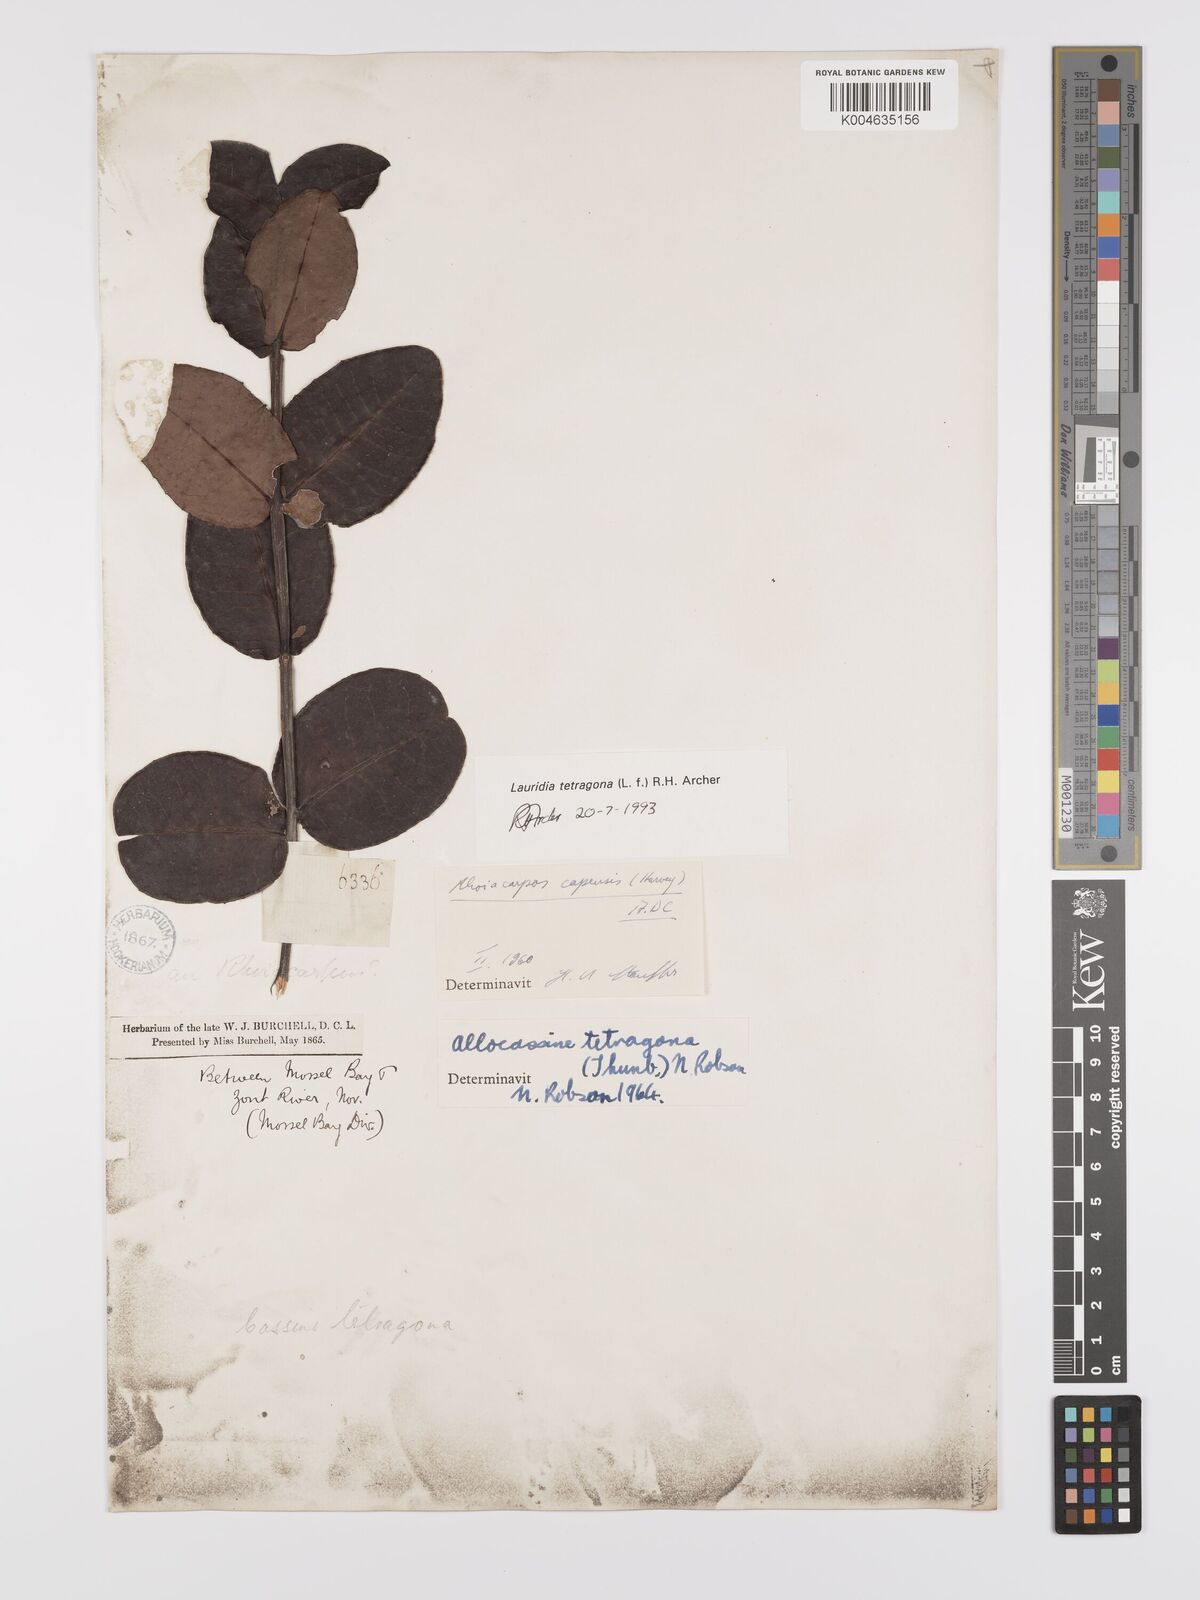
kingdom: Plantae
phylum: Tracheophyta
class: Magnoliopsida
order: Celastrales
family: Celastraceae
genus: Lauridia
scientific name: Lauridia tetragona
